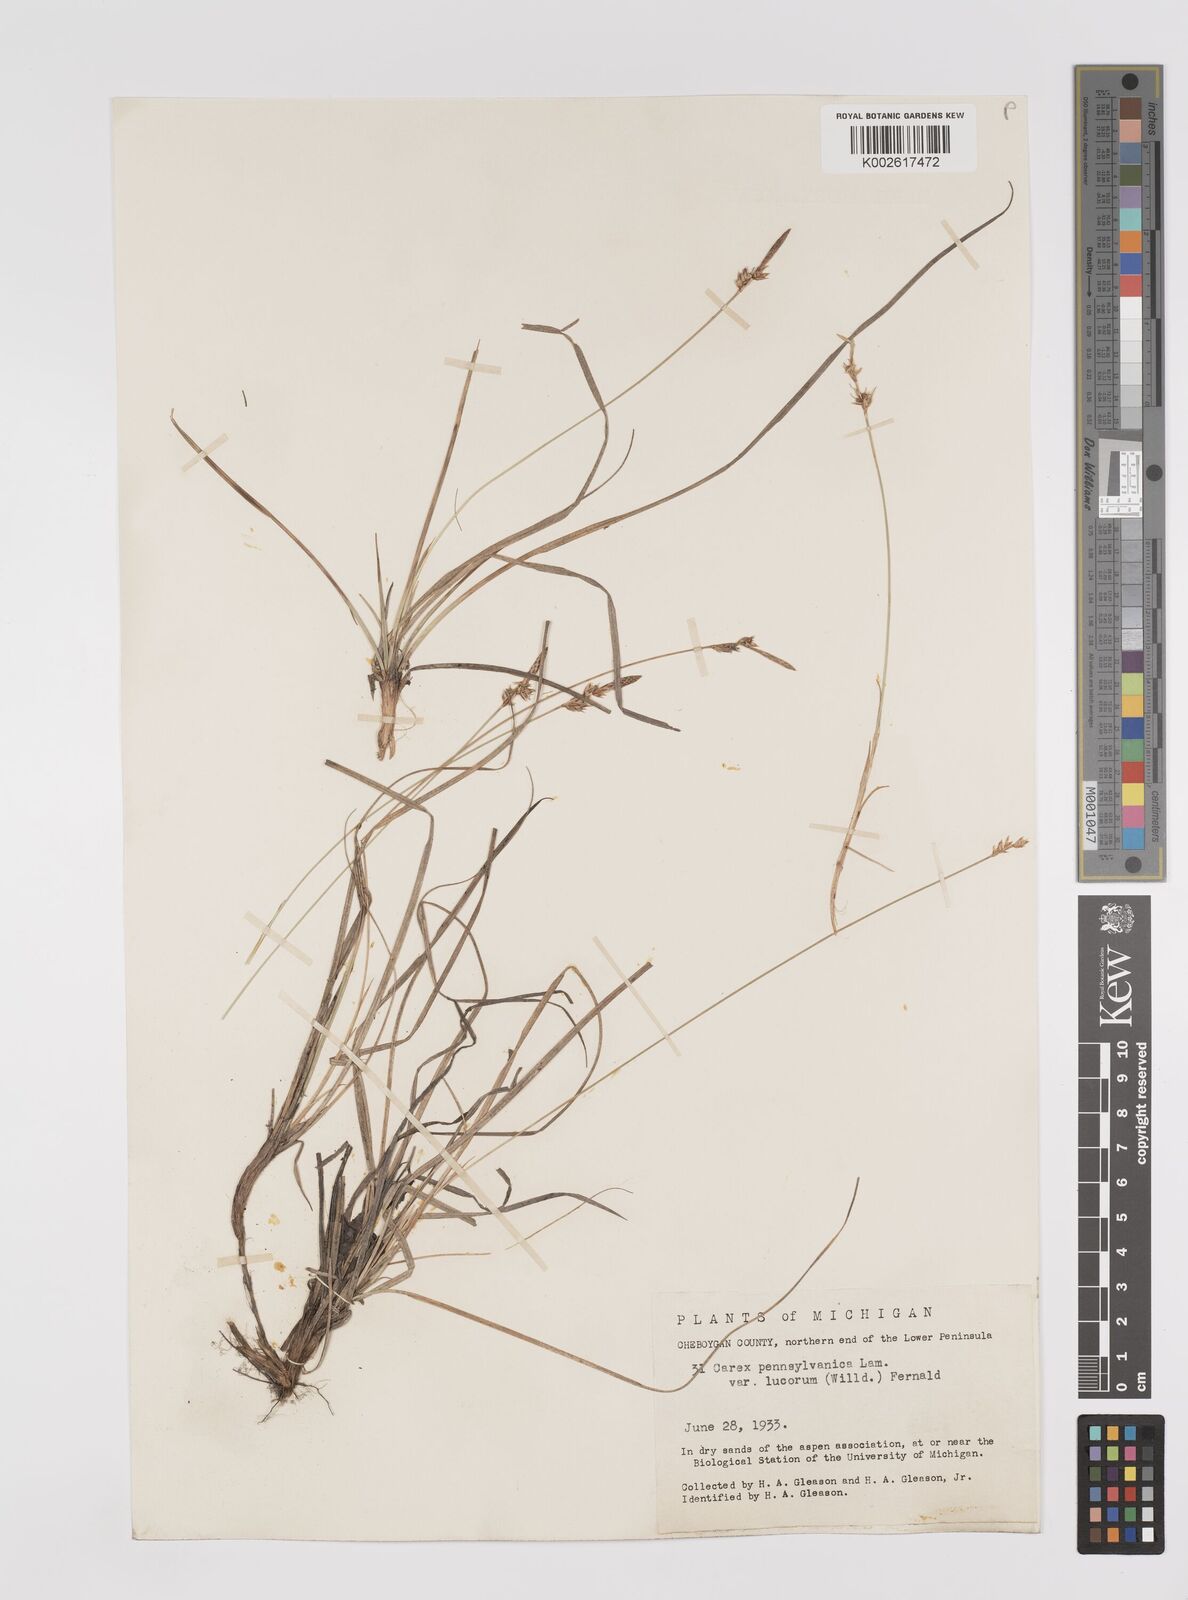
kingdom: Plantae
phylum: Tracheophyta
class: Liliopsida
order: Poales
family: Cyperaceae
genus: Carex
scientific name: Carex pensylvanica
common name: Common oak sedge
